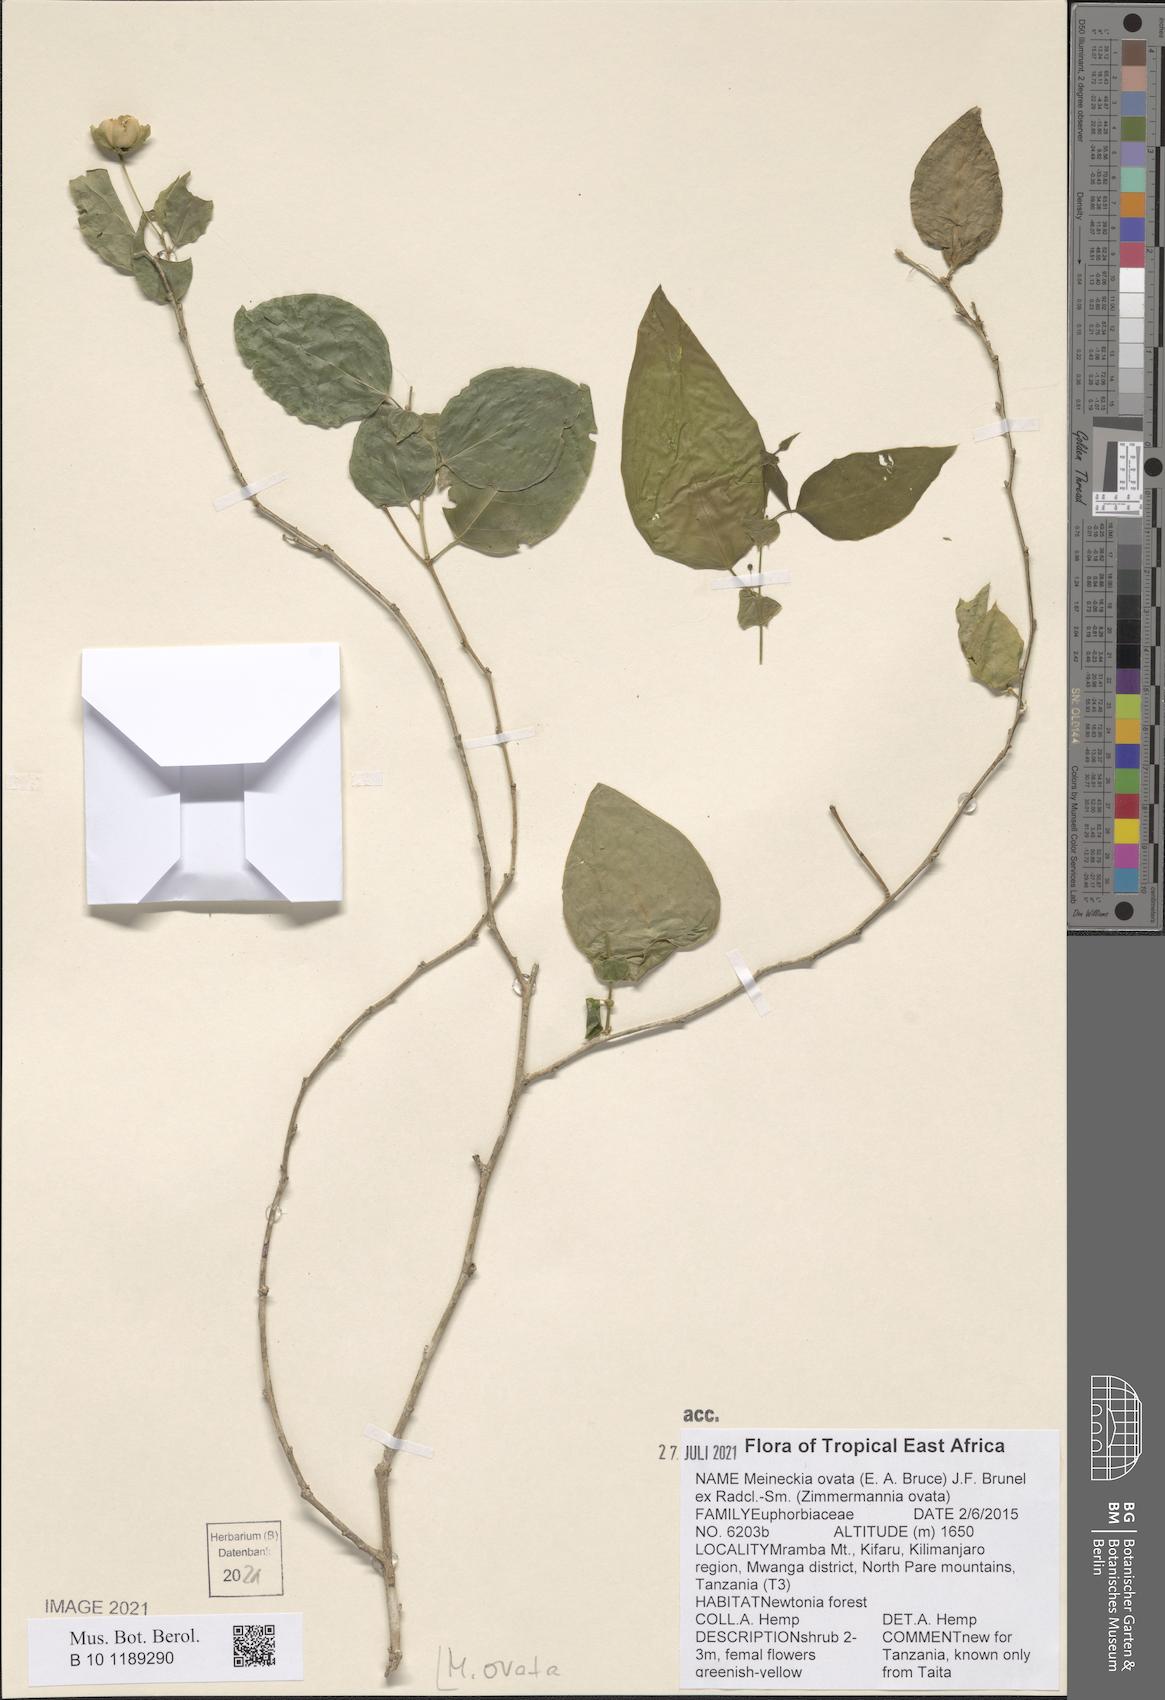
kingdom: Plantae
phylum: Tracheophyta
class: Magnoliopsida
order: Malpighiales
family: Phyllanthaceae
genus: Meineckia
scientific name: Meineckia ovata
